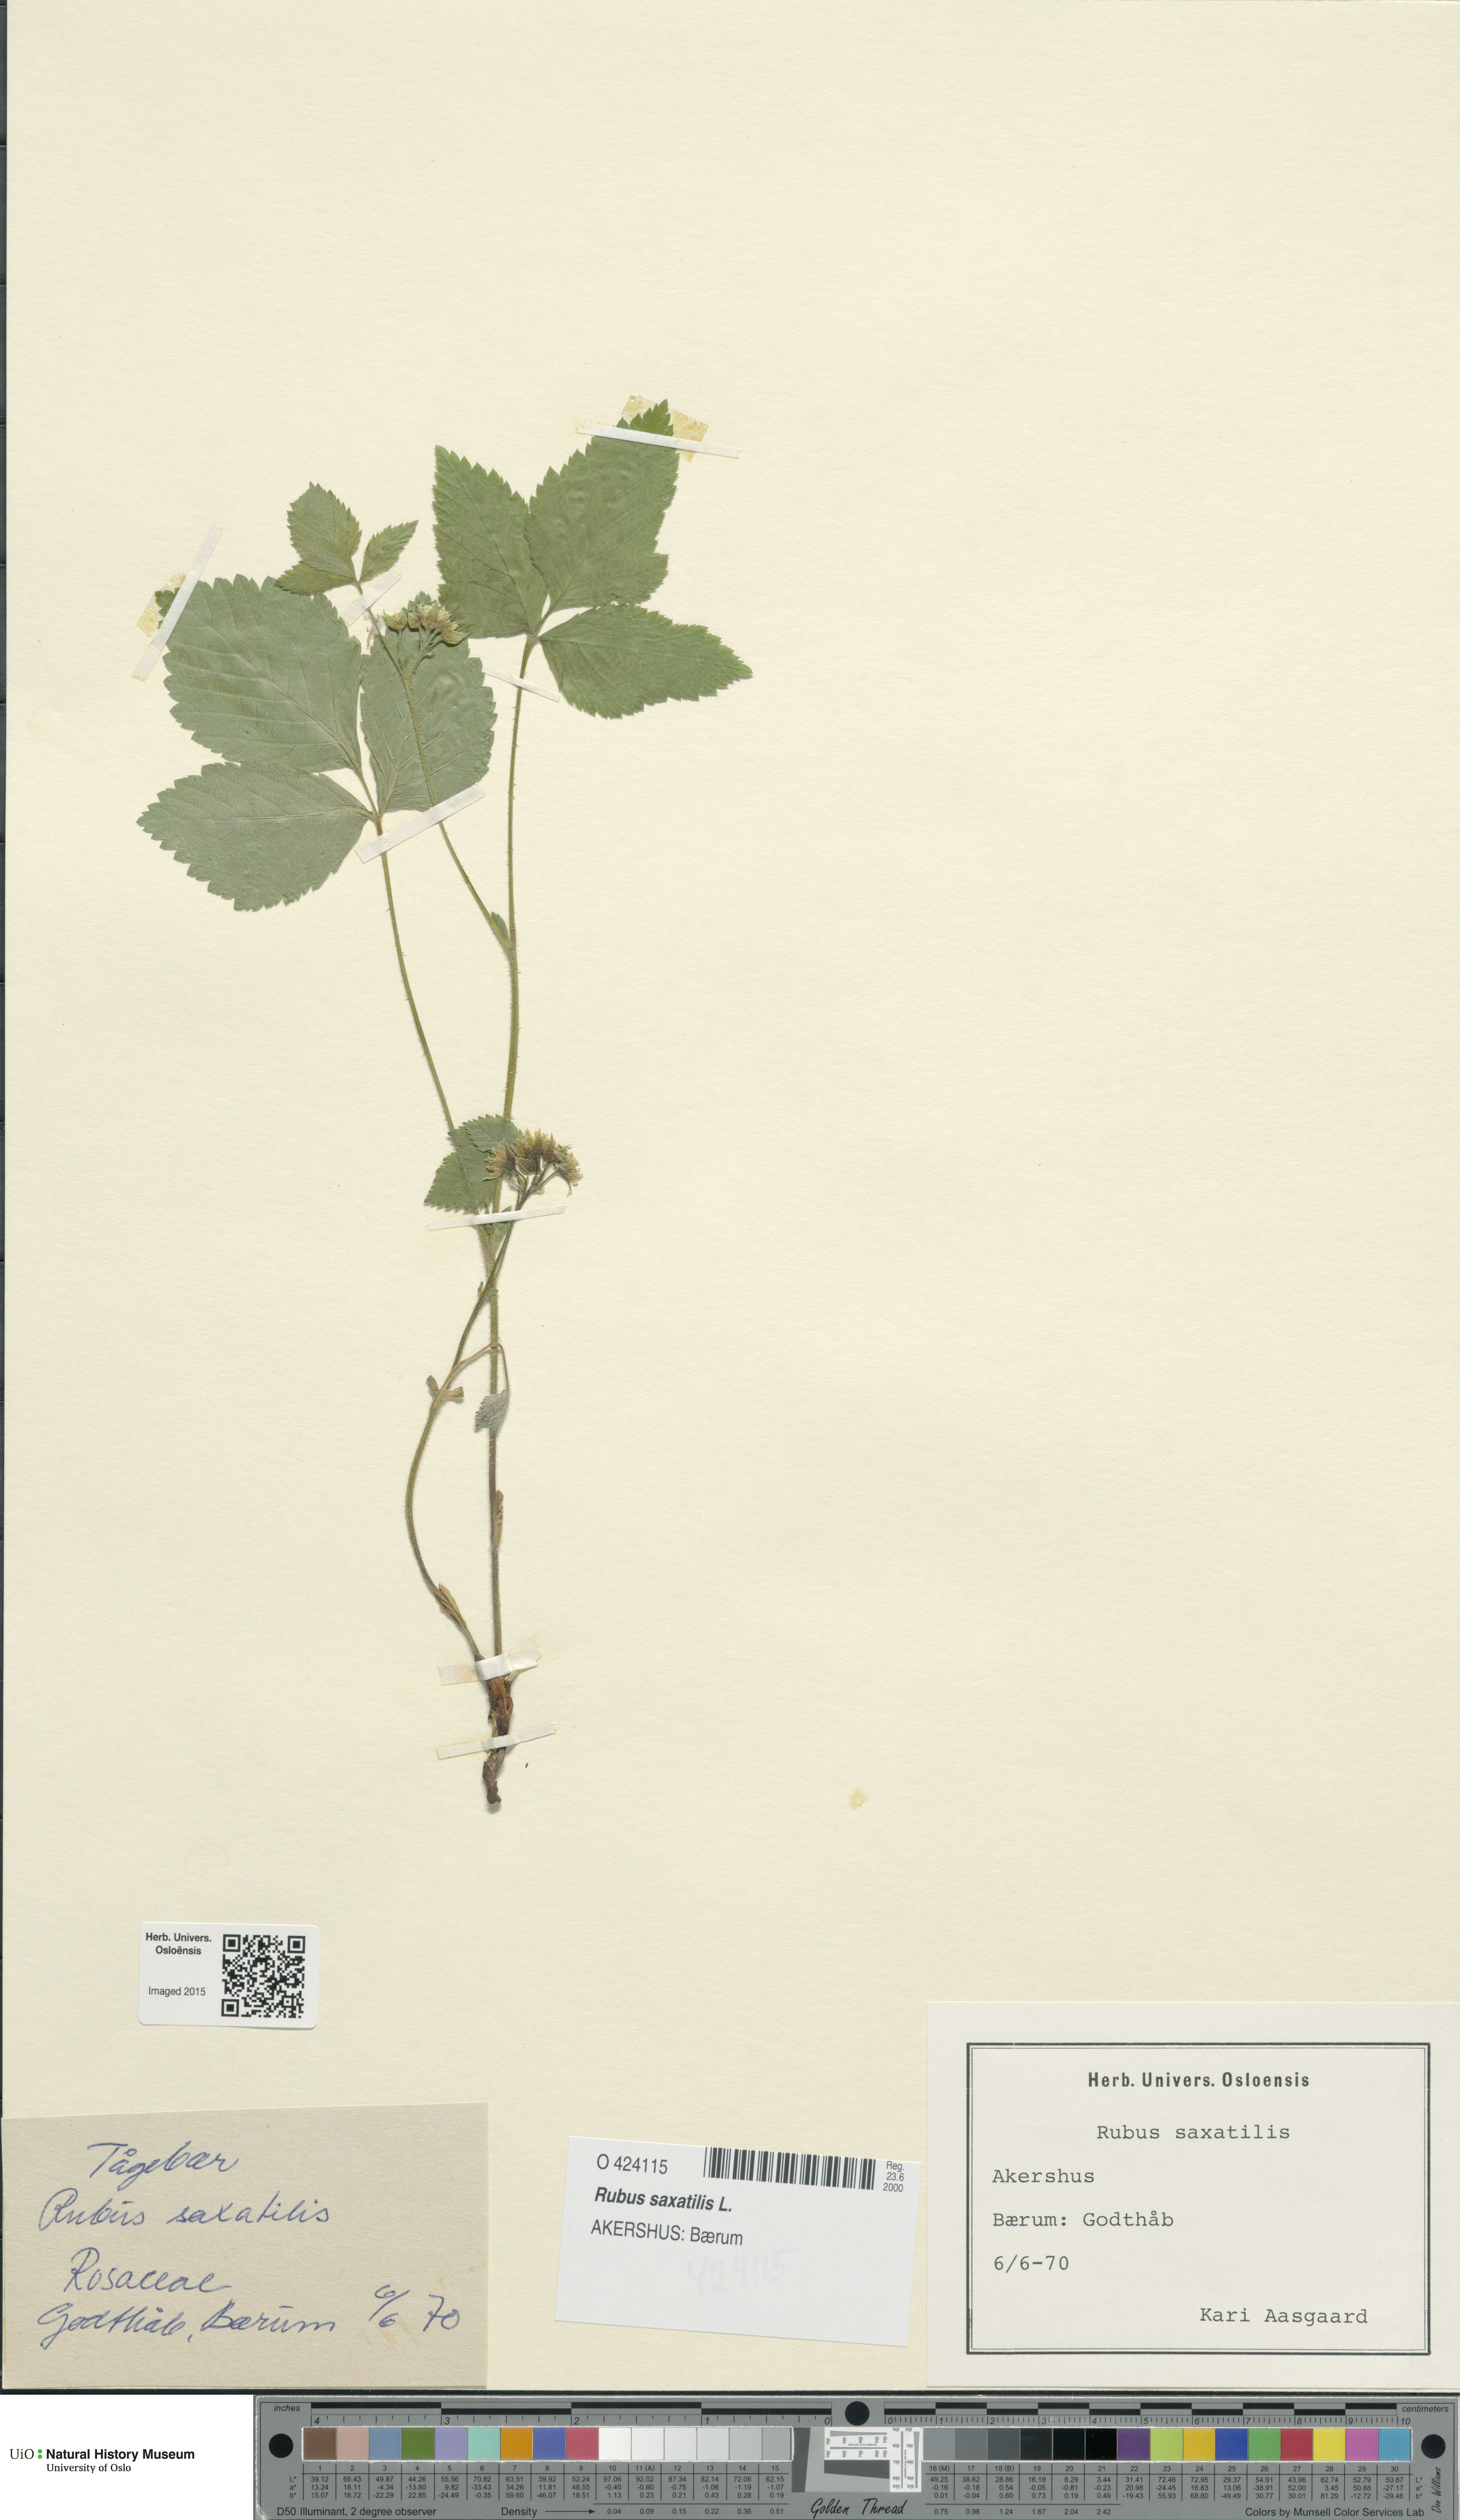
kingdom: Plantae
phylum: Tracheophyta
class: Magnoliopsida
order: Rosales
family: Rosaceae
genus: Rubus
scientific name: Rubus saxatilis
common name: Stone bramble
